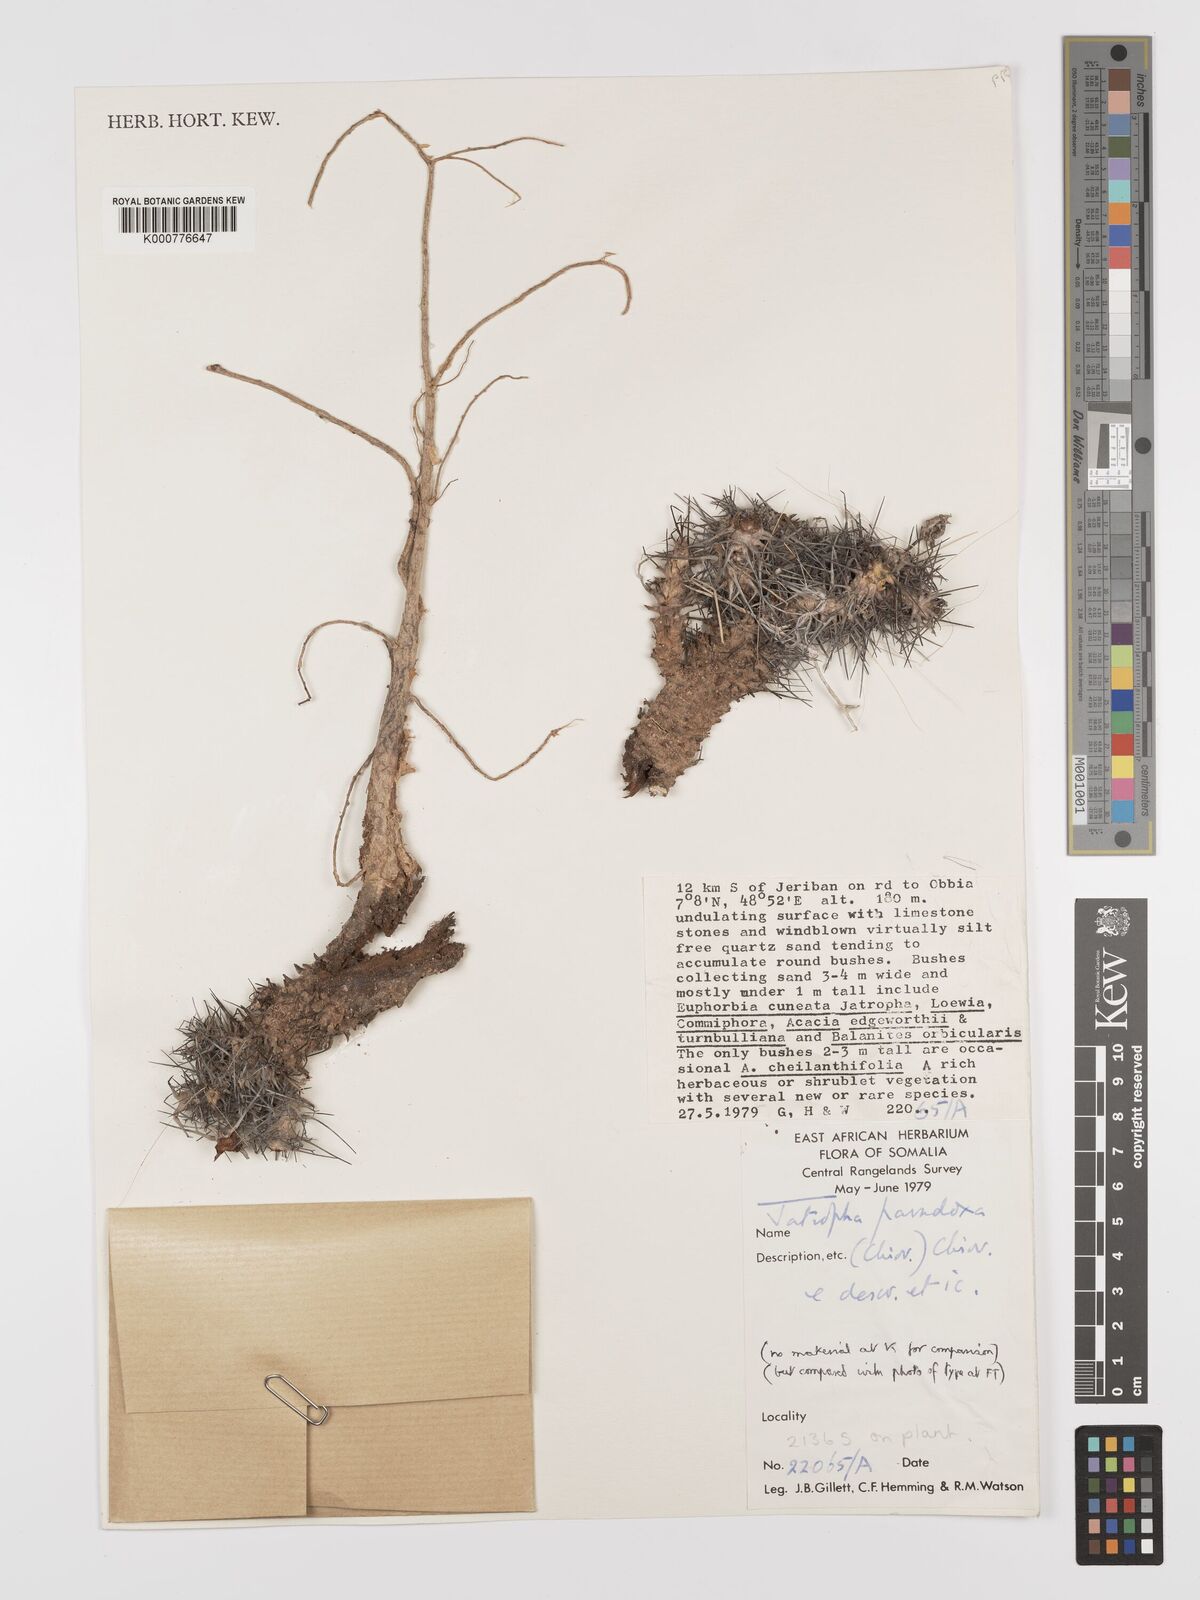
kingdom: Plantae
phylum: Tracheophyta
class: Magnoliopsida
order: Malpighiales
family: Euphorbiaceae
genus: Jatropha
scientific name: Jatropha paradoxa
